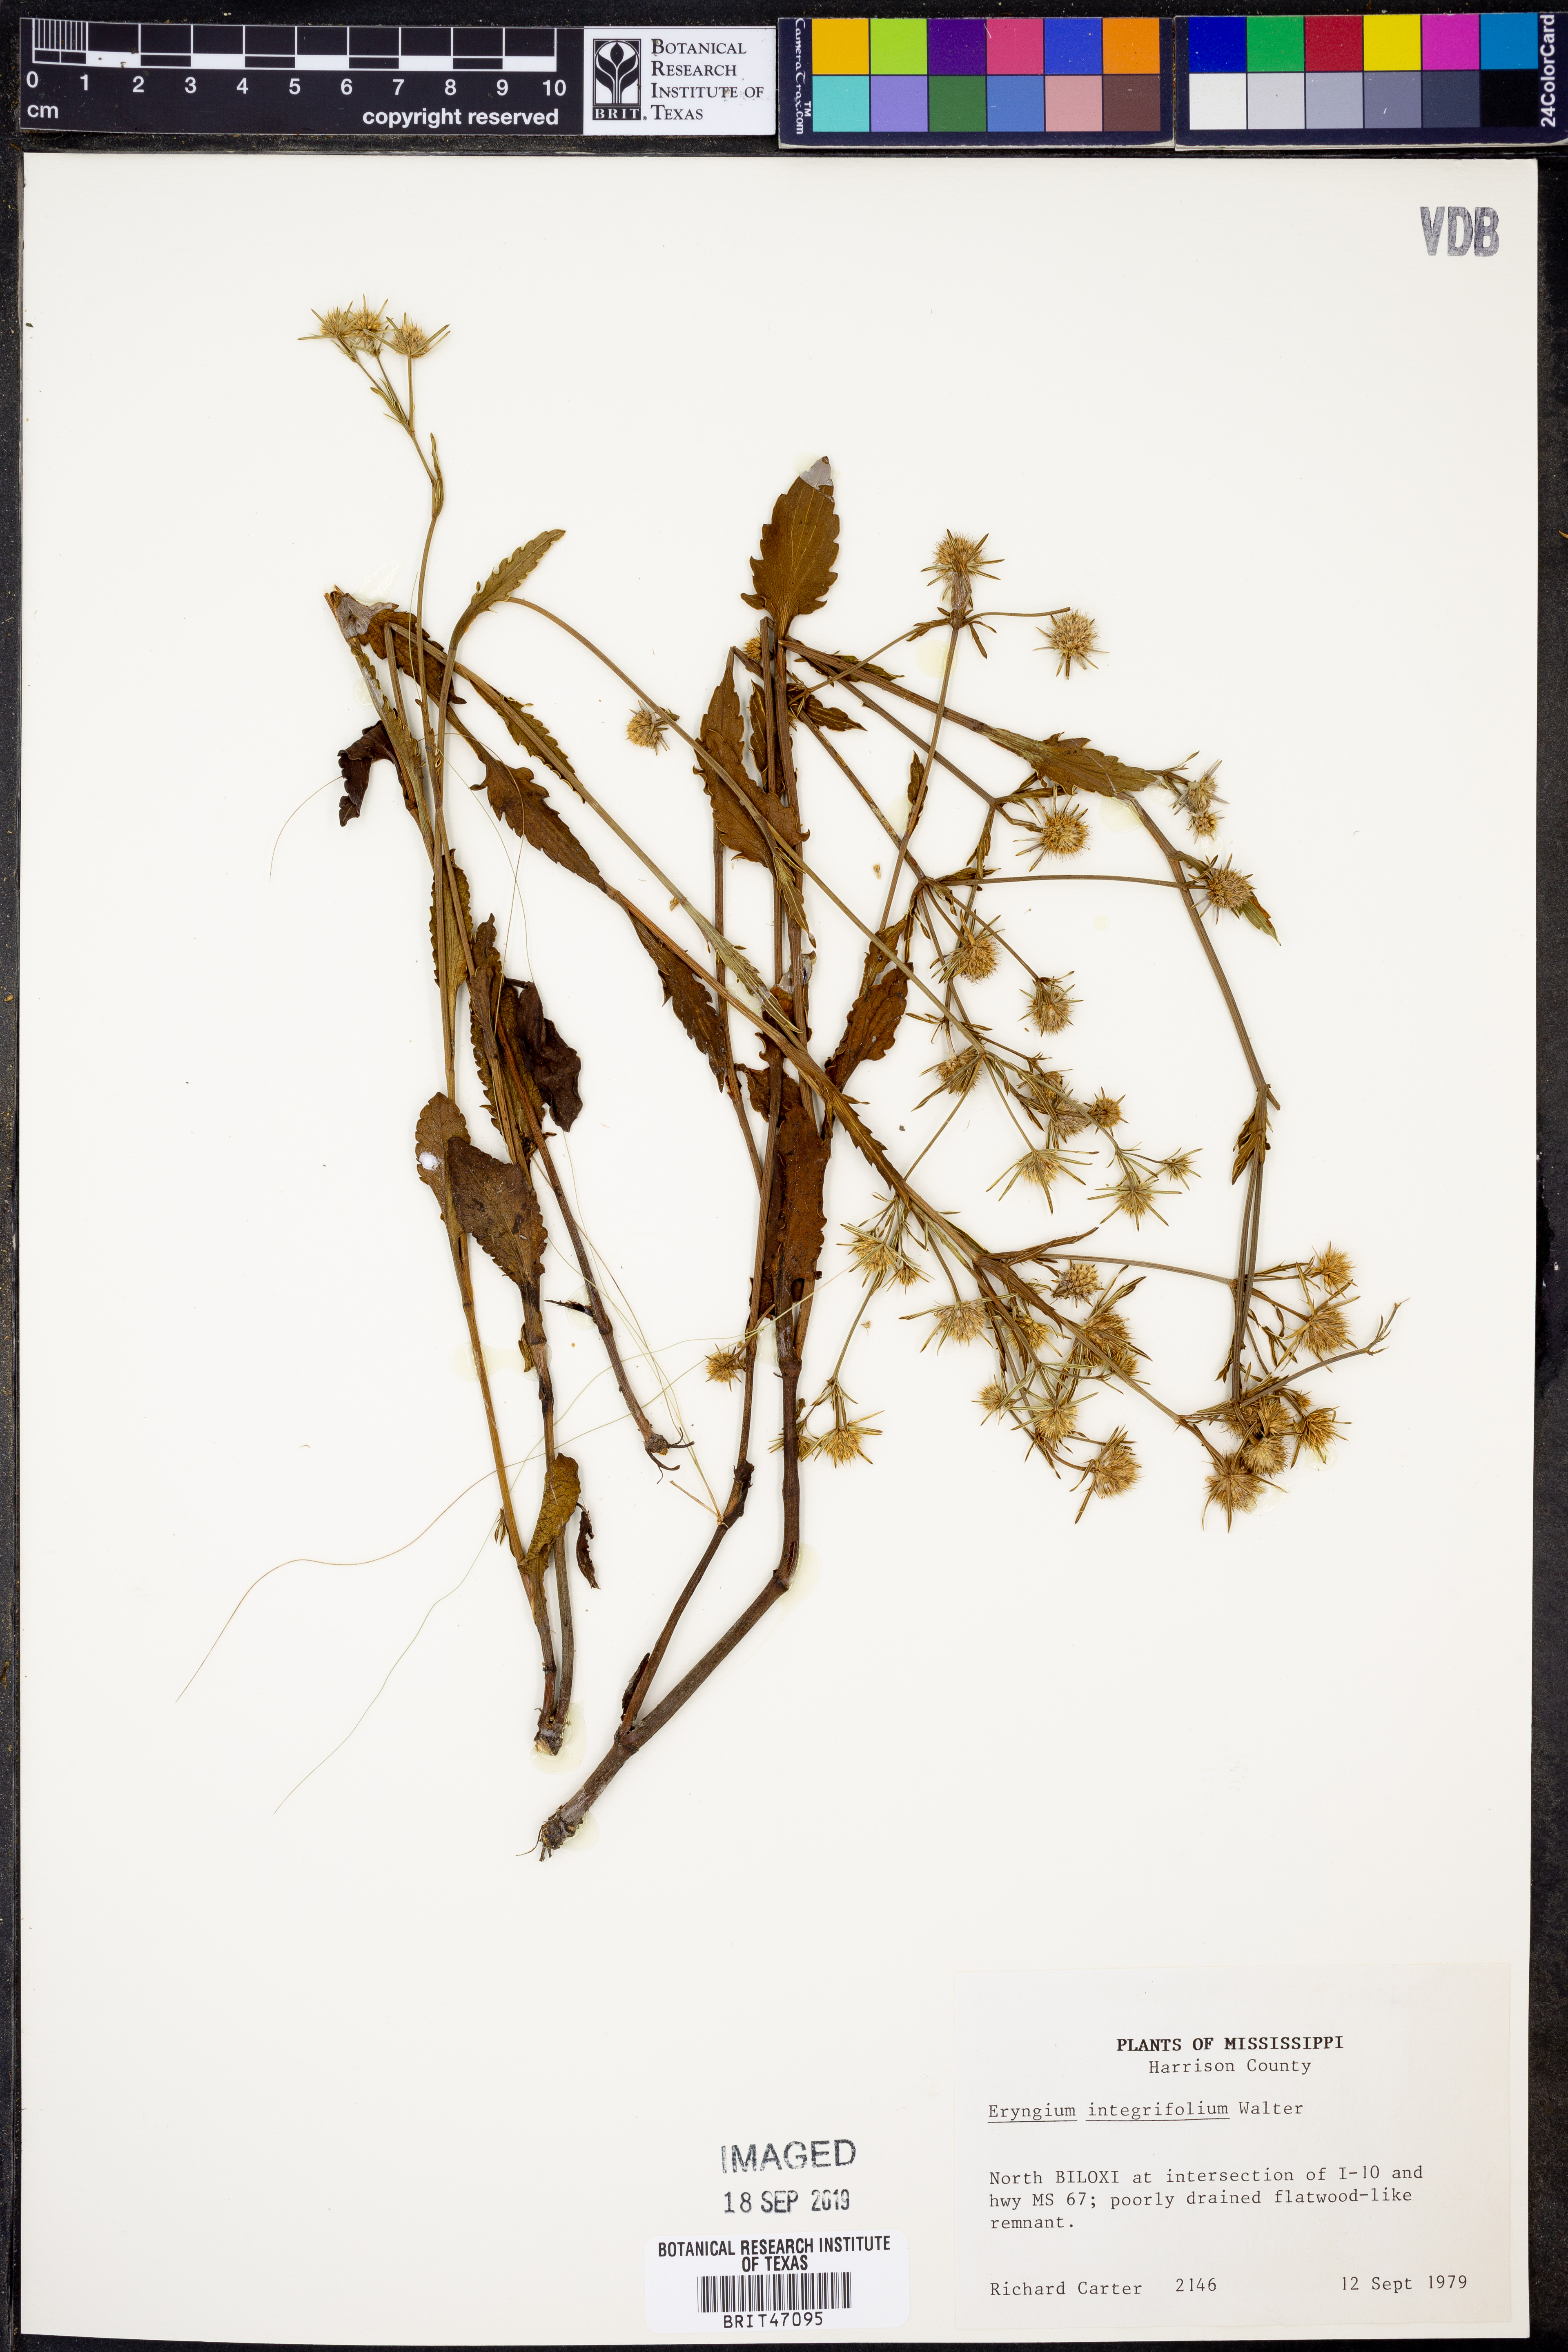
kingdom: Plantae
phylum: Tracheophyta
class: Magnoliopsida
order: Apiales
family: Apiaceae
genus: Eryngium
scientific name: Eryngium integrifolium
